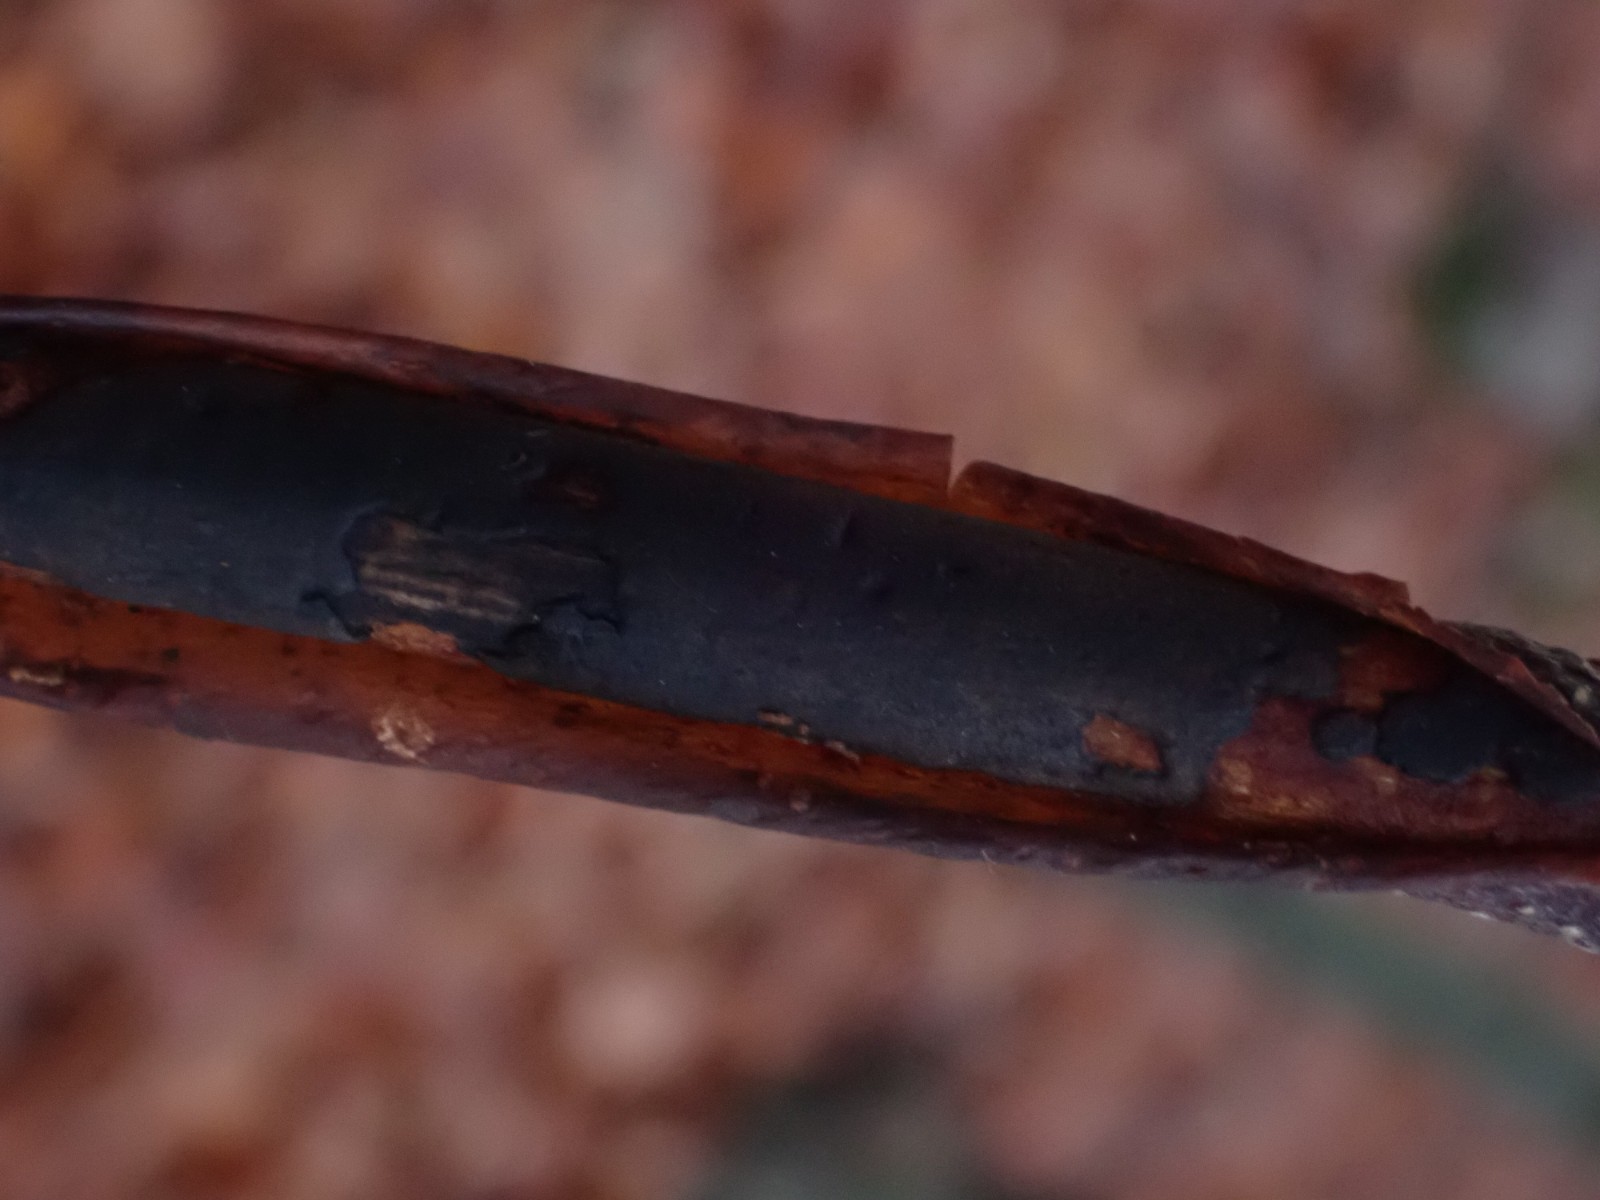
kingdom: Fungi
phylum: Ascomycota
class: Sordariomycetes
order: Xylariales
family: Diatrypaceae
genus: Diatrype
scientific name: Diatrype decorticata
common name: barksprænger-kulskorpe
